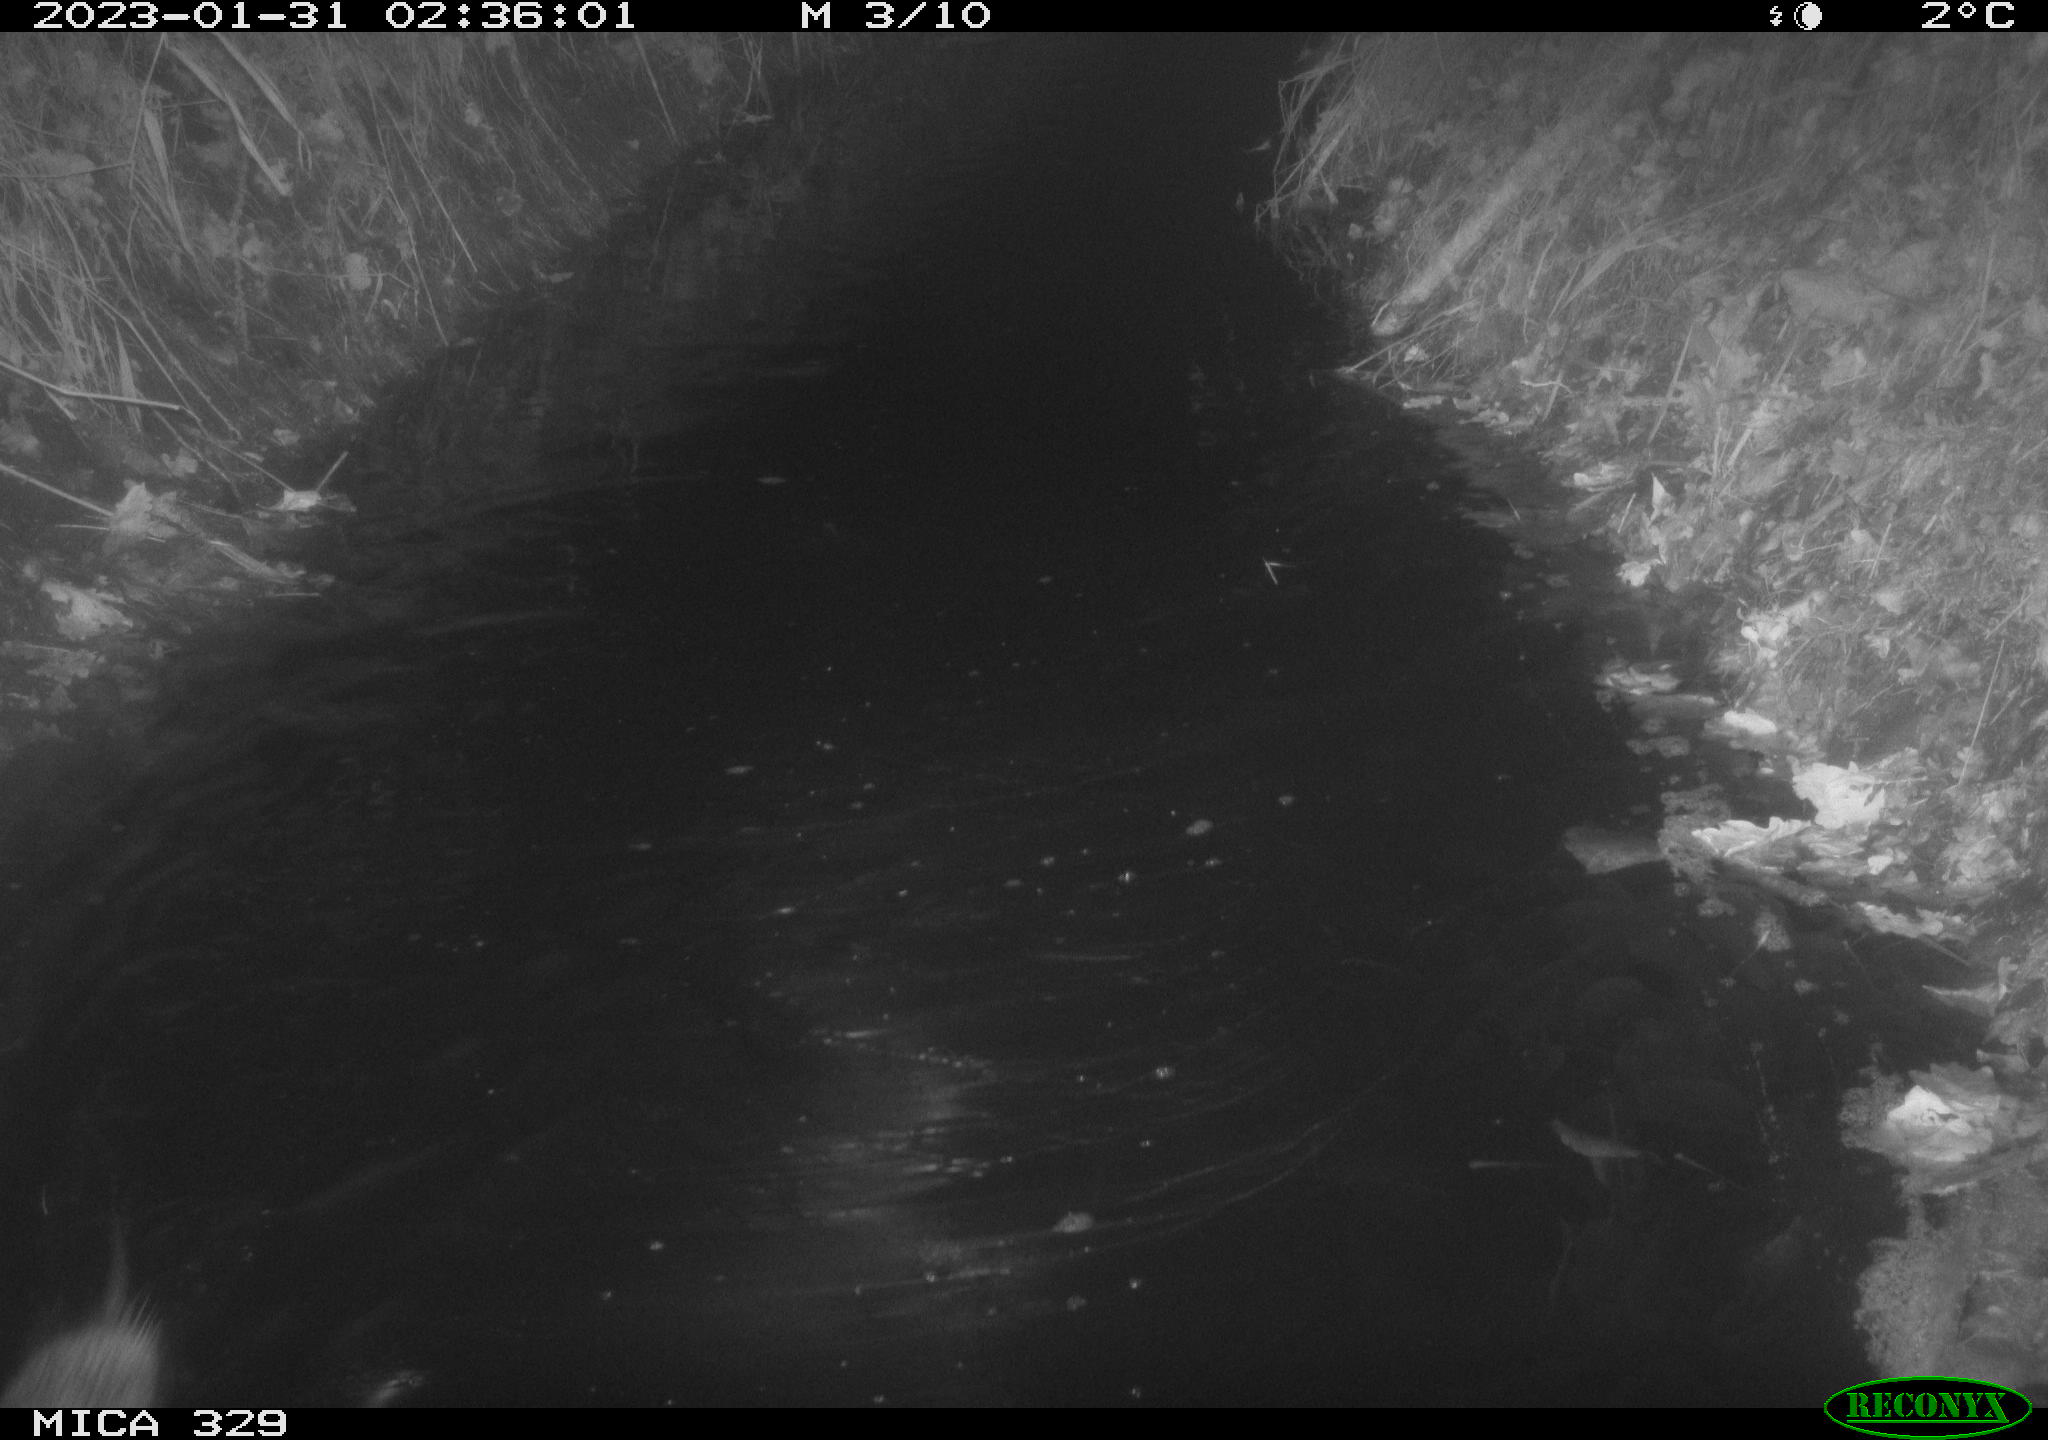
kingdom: Animalia
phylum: Chordata
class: Mammalia
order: Rodentia
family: Cricetidae
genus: Ondatra
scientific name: Ondatra zibethicus
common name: Muskrat
